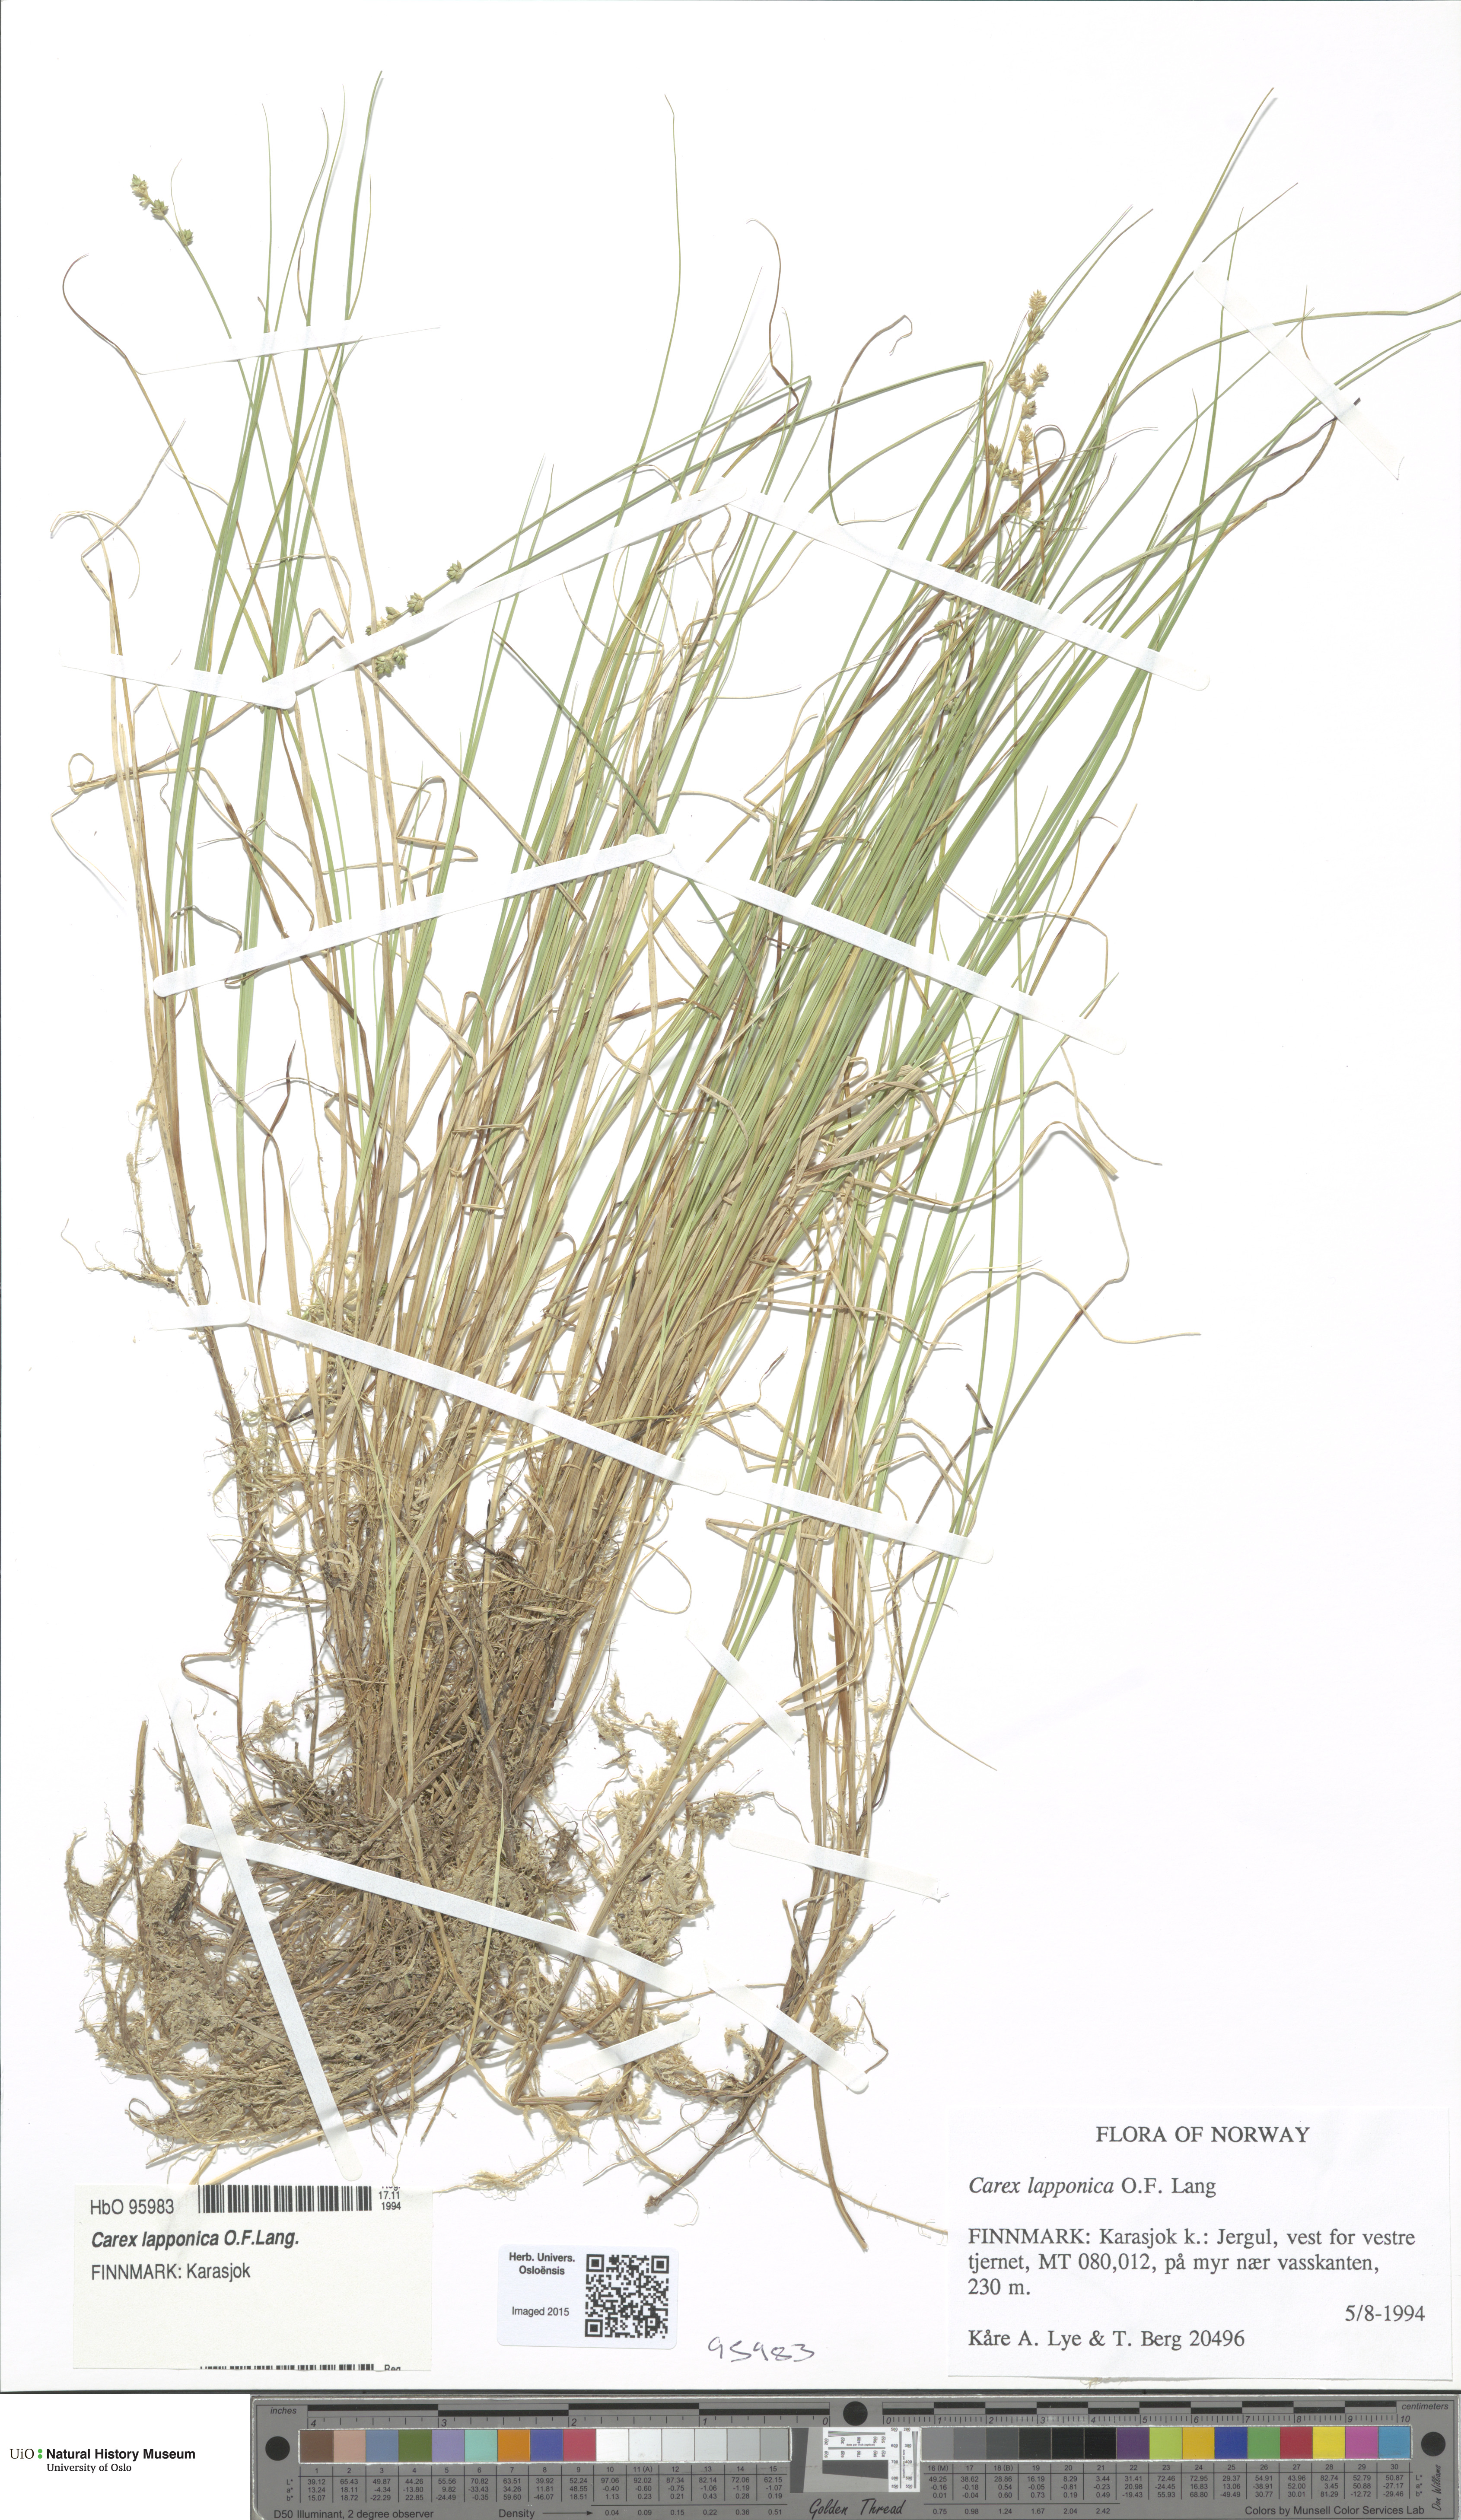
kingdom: Plantae
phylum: Tracheophyta
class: Liliopsida
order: Poales
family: Cyperaceae
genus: Carex
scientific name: Carex lapponica
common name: Lapland sedge
